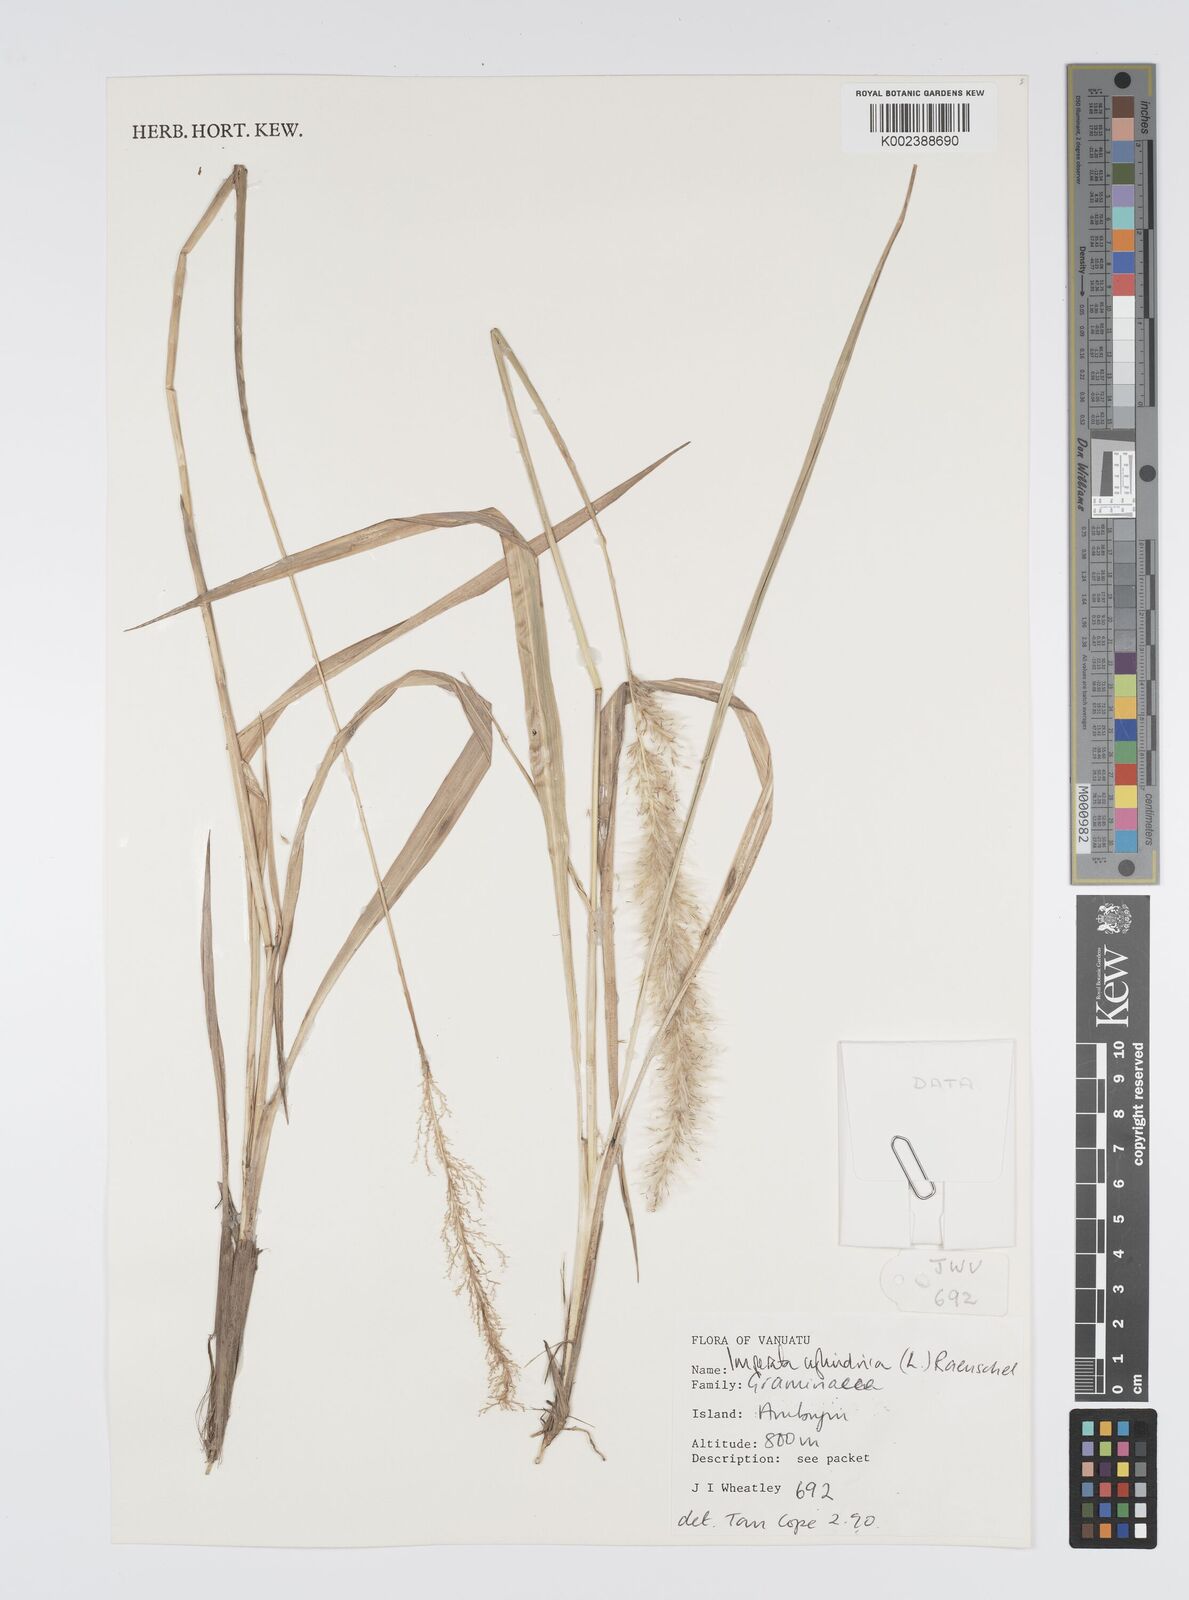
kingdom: Plantae
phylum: Tracheophyta
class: Liliopsida
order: Poales
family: Poaceae
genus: Imperata
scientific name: Imperata cylindrica
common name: Cogongrass
